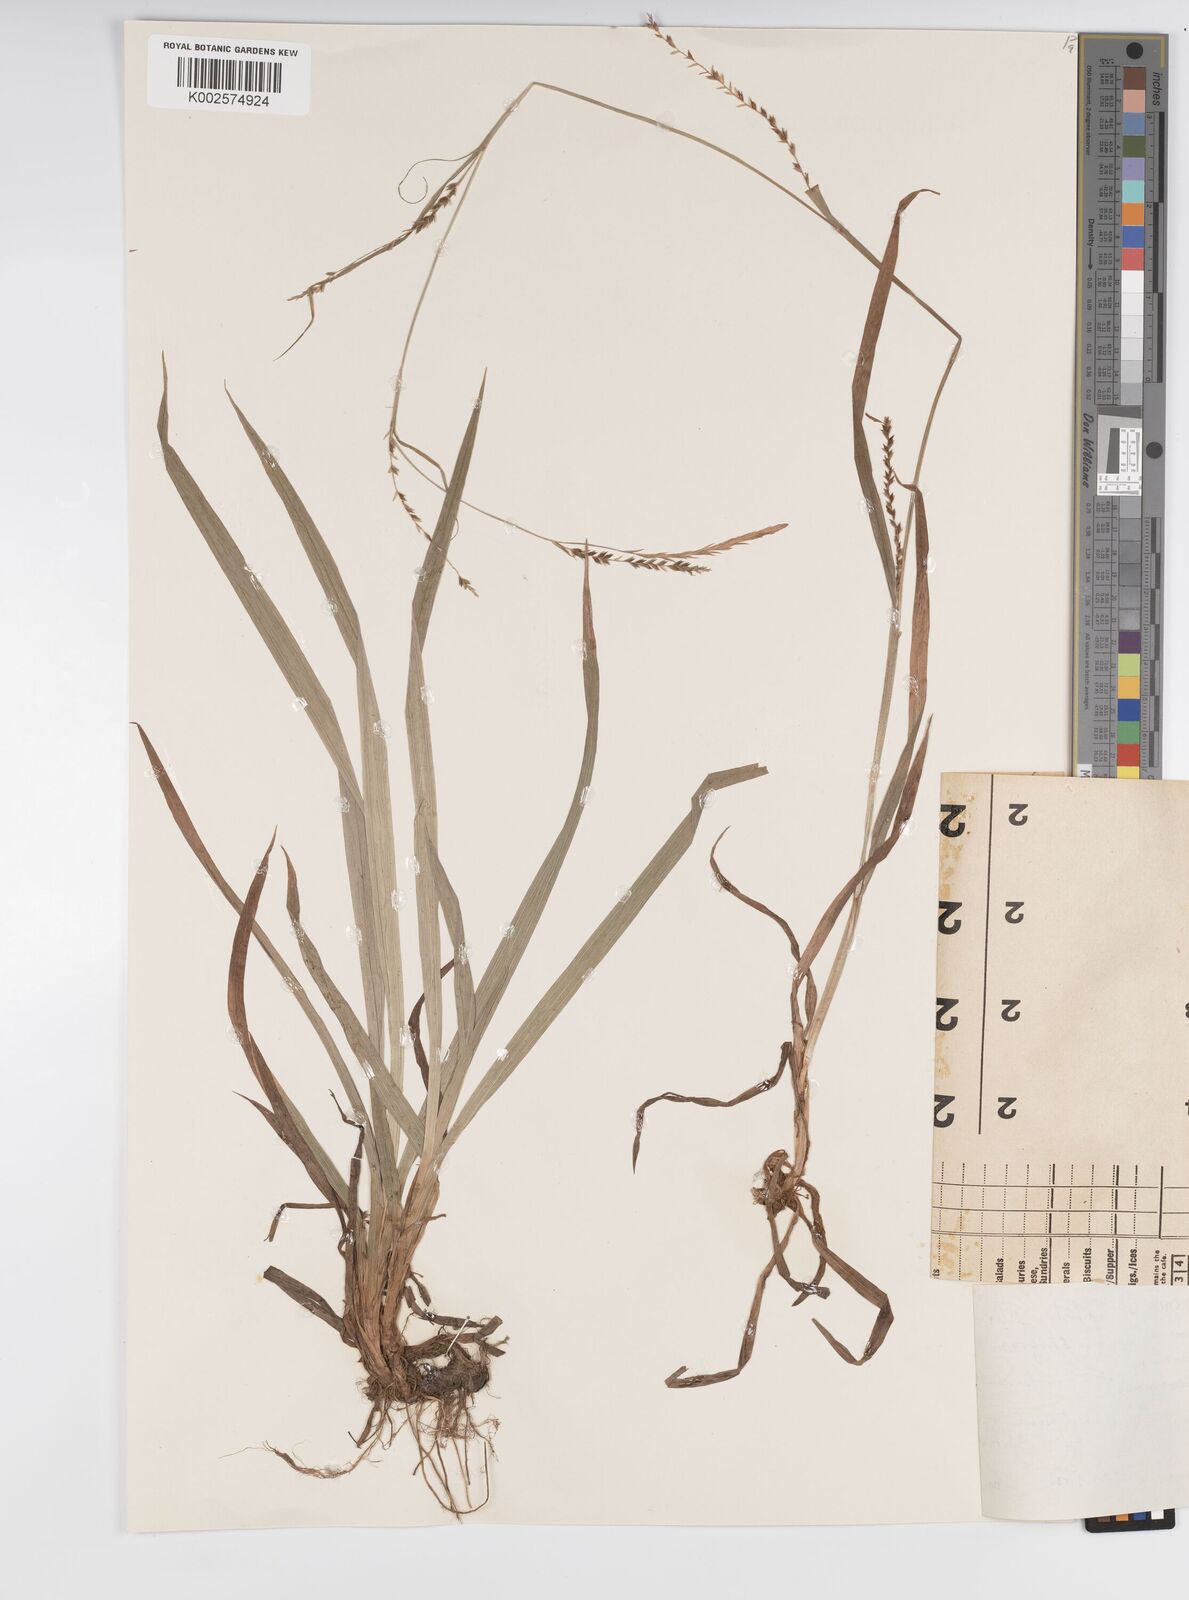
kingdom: Plantae
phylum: Tracheophyta
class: Liliopsida
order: Poales
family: Cyperaceae
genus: Carex
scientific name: Carex strigosa
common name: Thin-spiked wood-sedge
